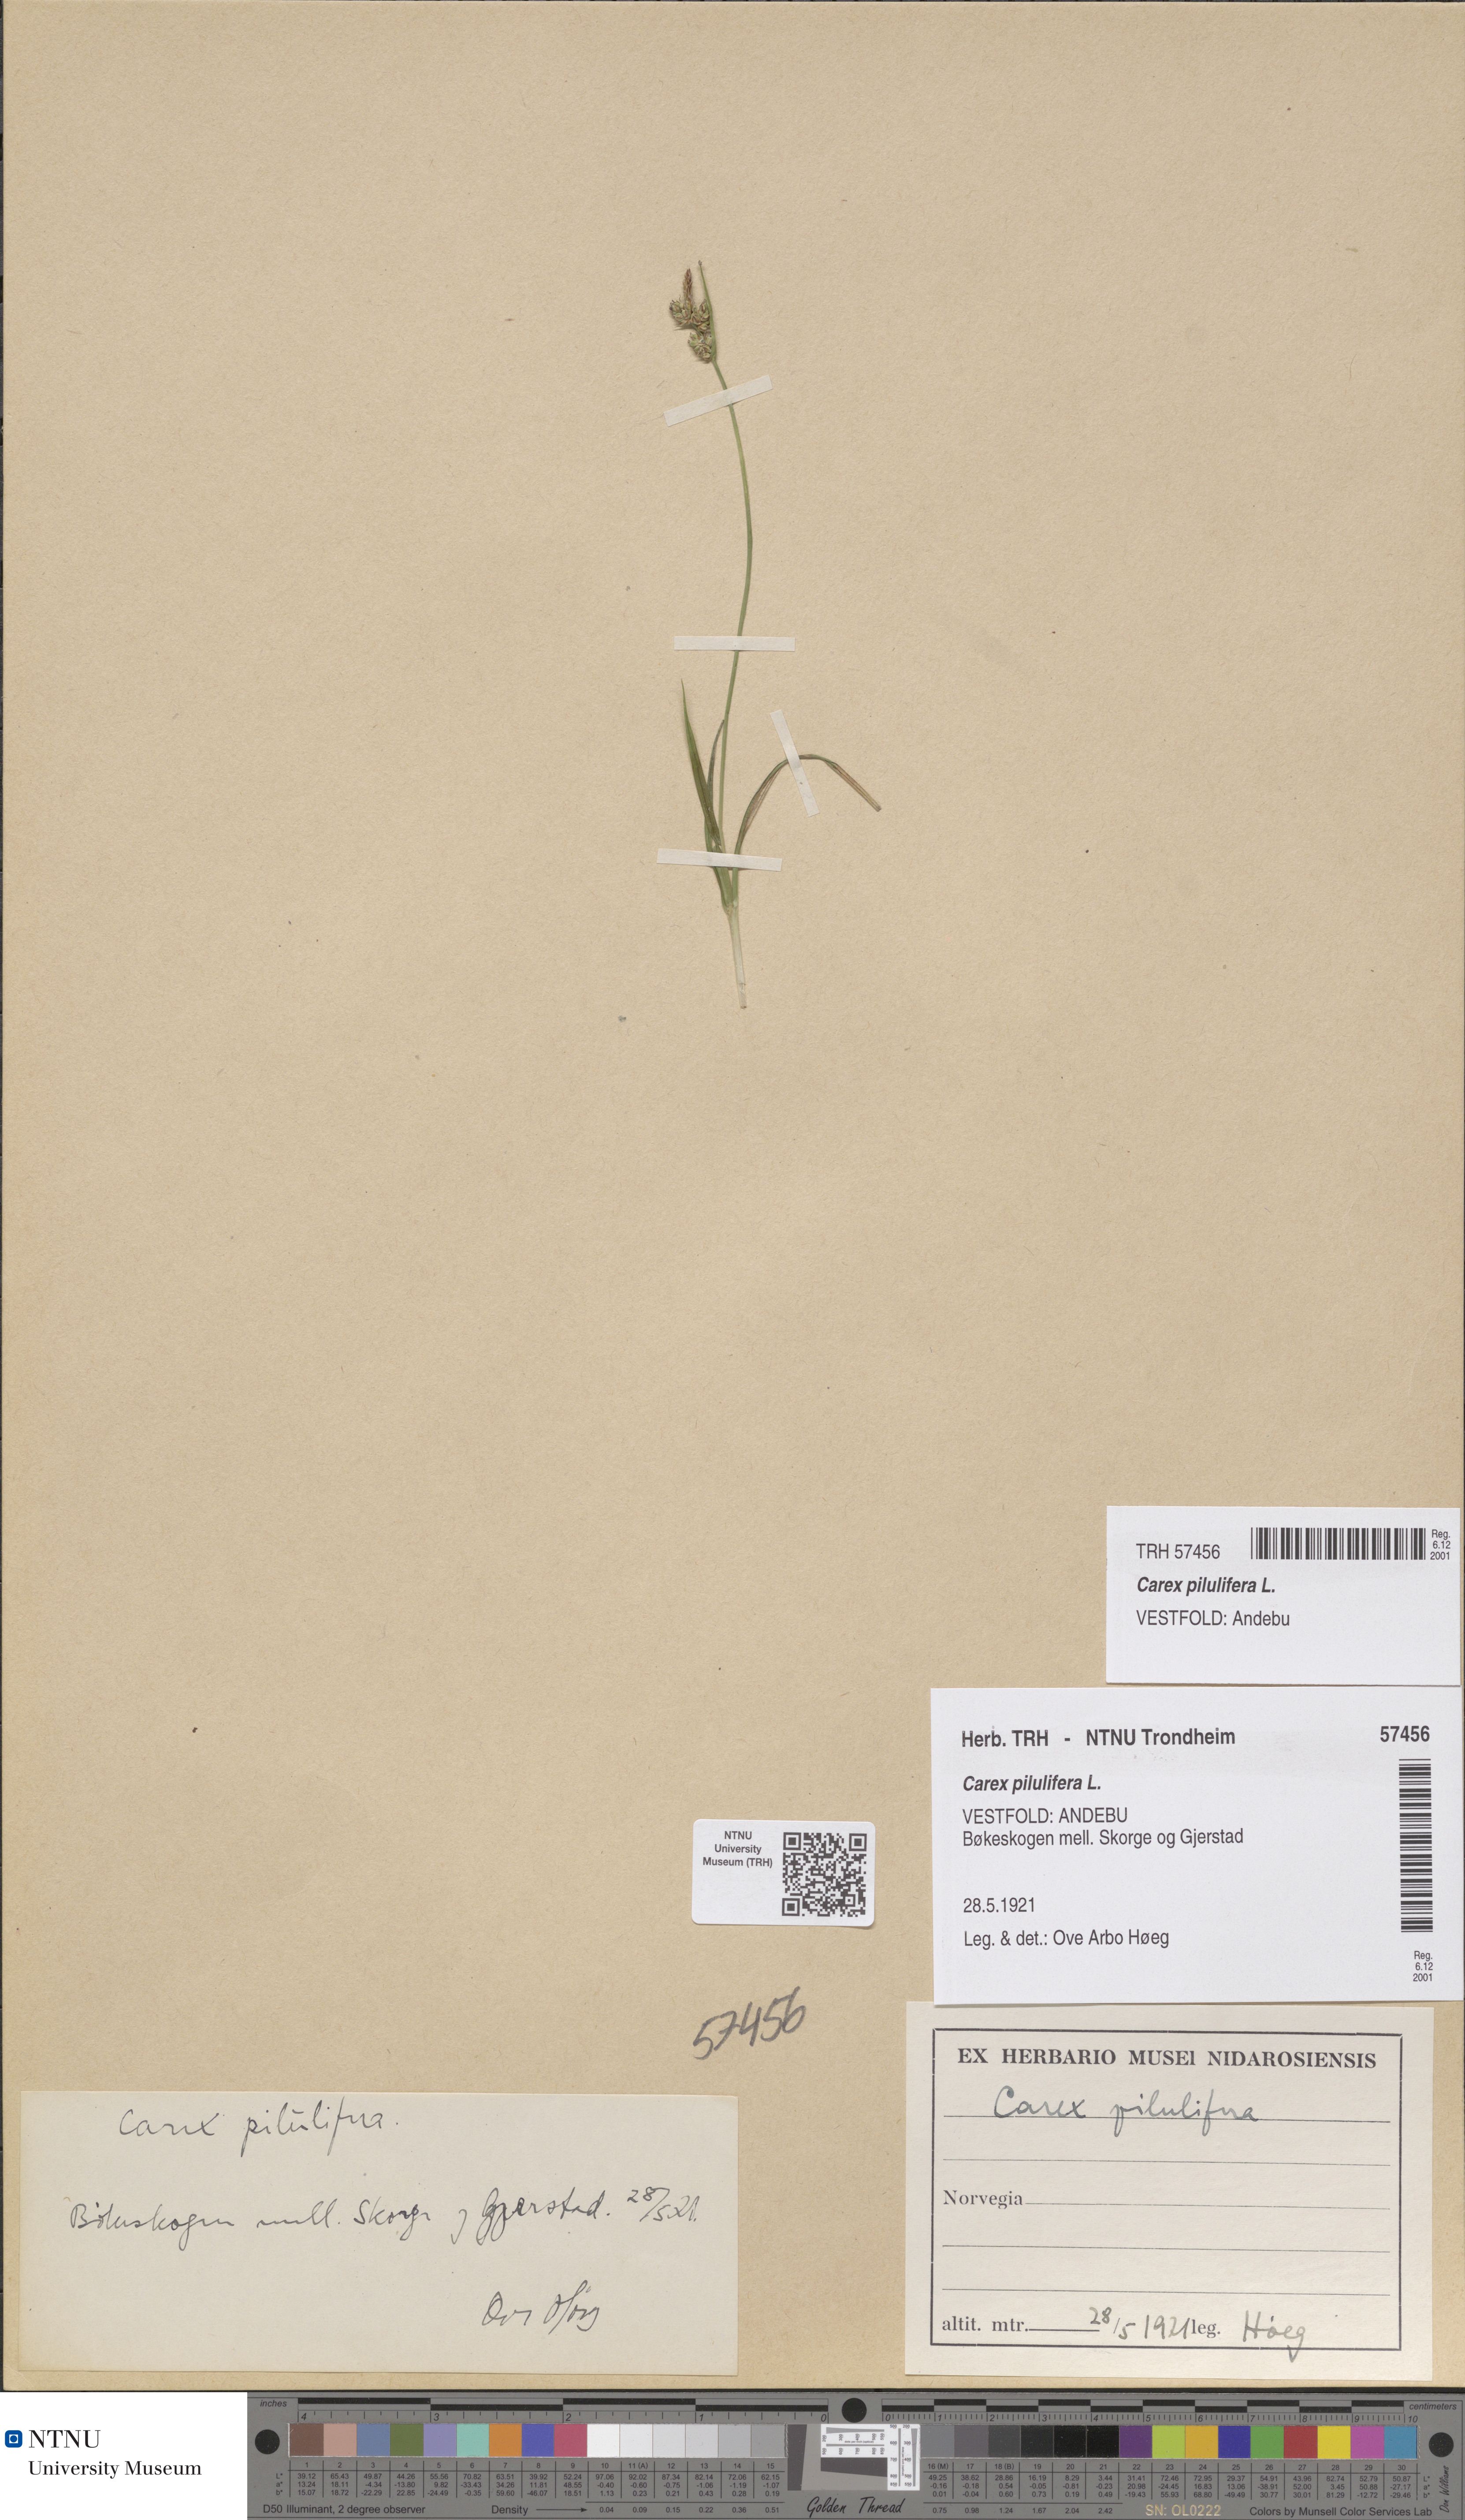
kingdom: Plantae
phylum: Tracheophyta
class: Liliopsida
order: Poales
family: Cyperaceae
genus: Carex
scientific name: Carex pilulifera
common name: Pill sedge
